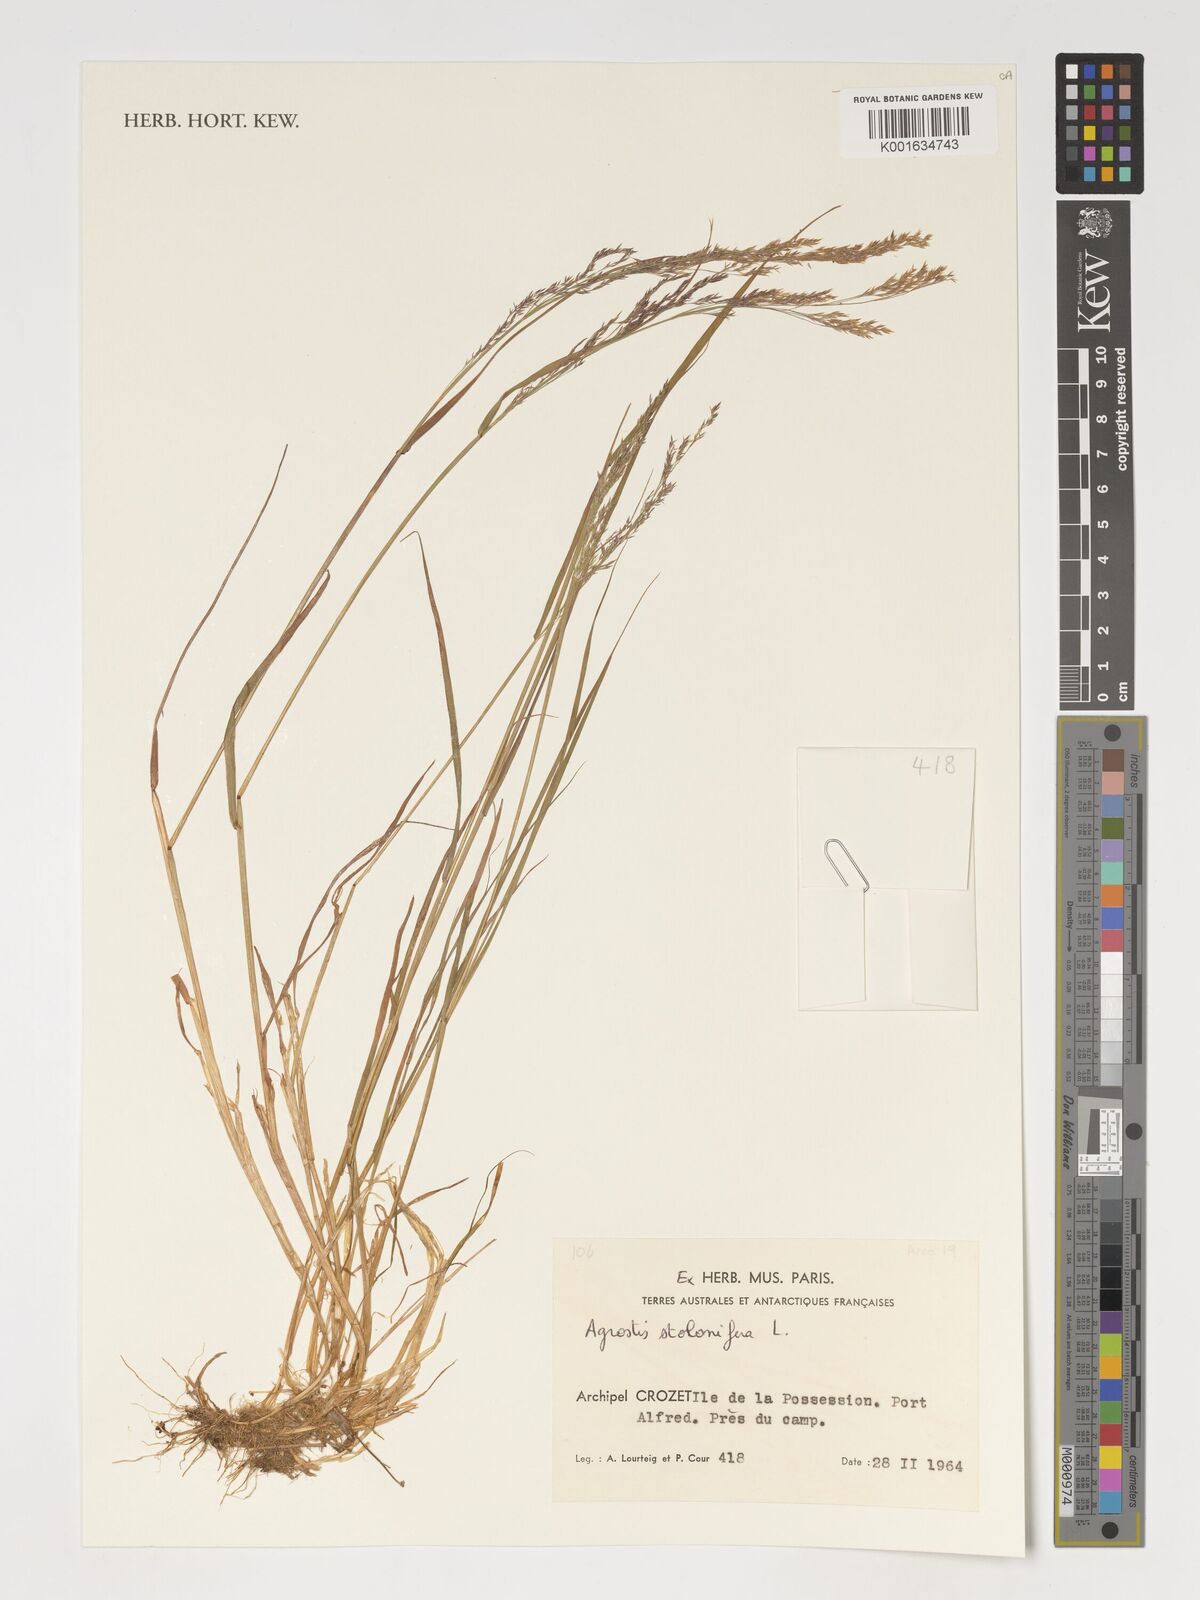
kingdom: Plantae
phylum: Tracheophyta
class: Liliopsida
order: Poales
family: Poaceae
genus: Agrostis
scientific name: Agrostis stolonifera
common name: Creeping bentgrass
